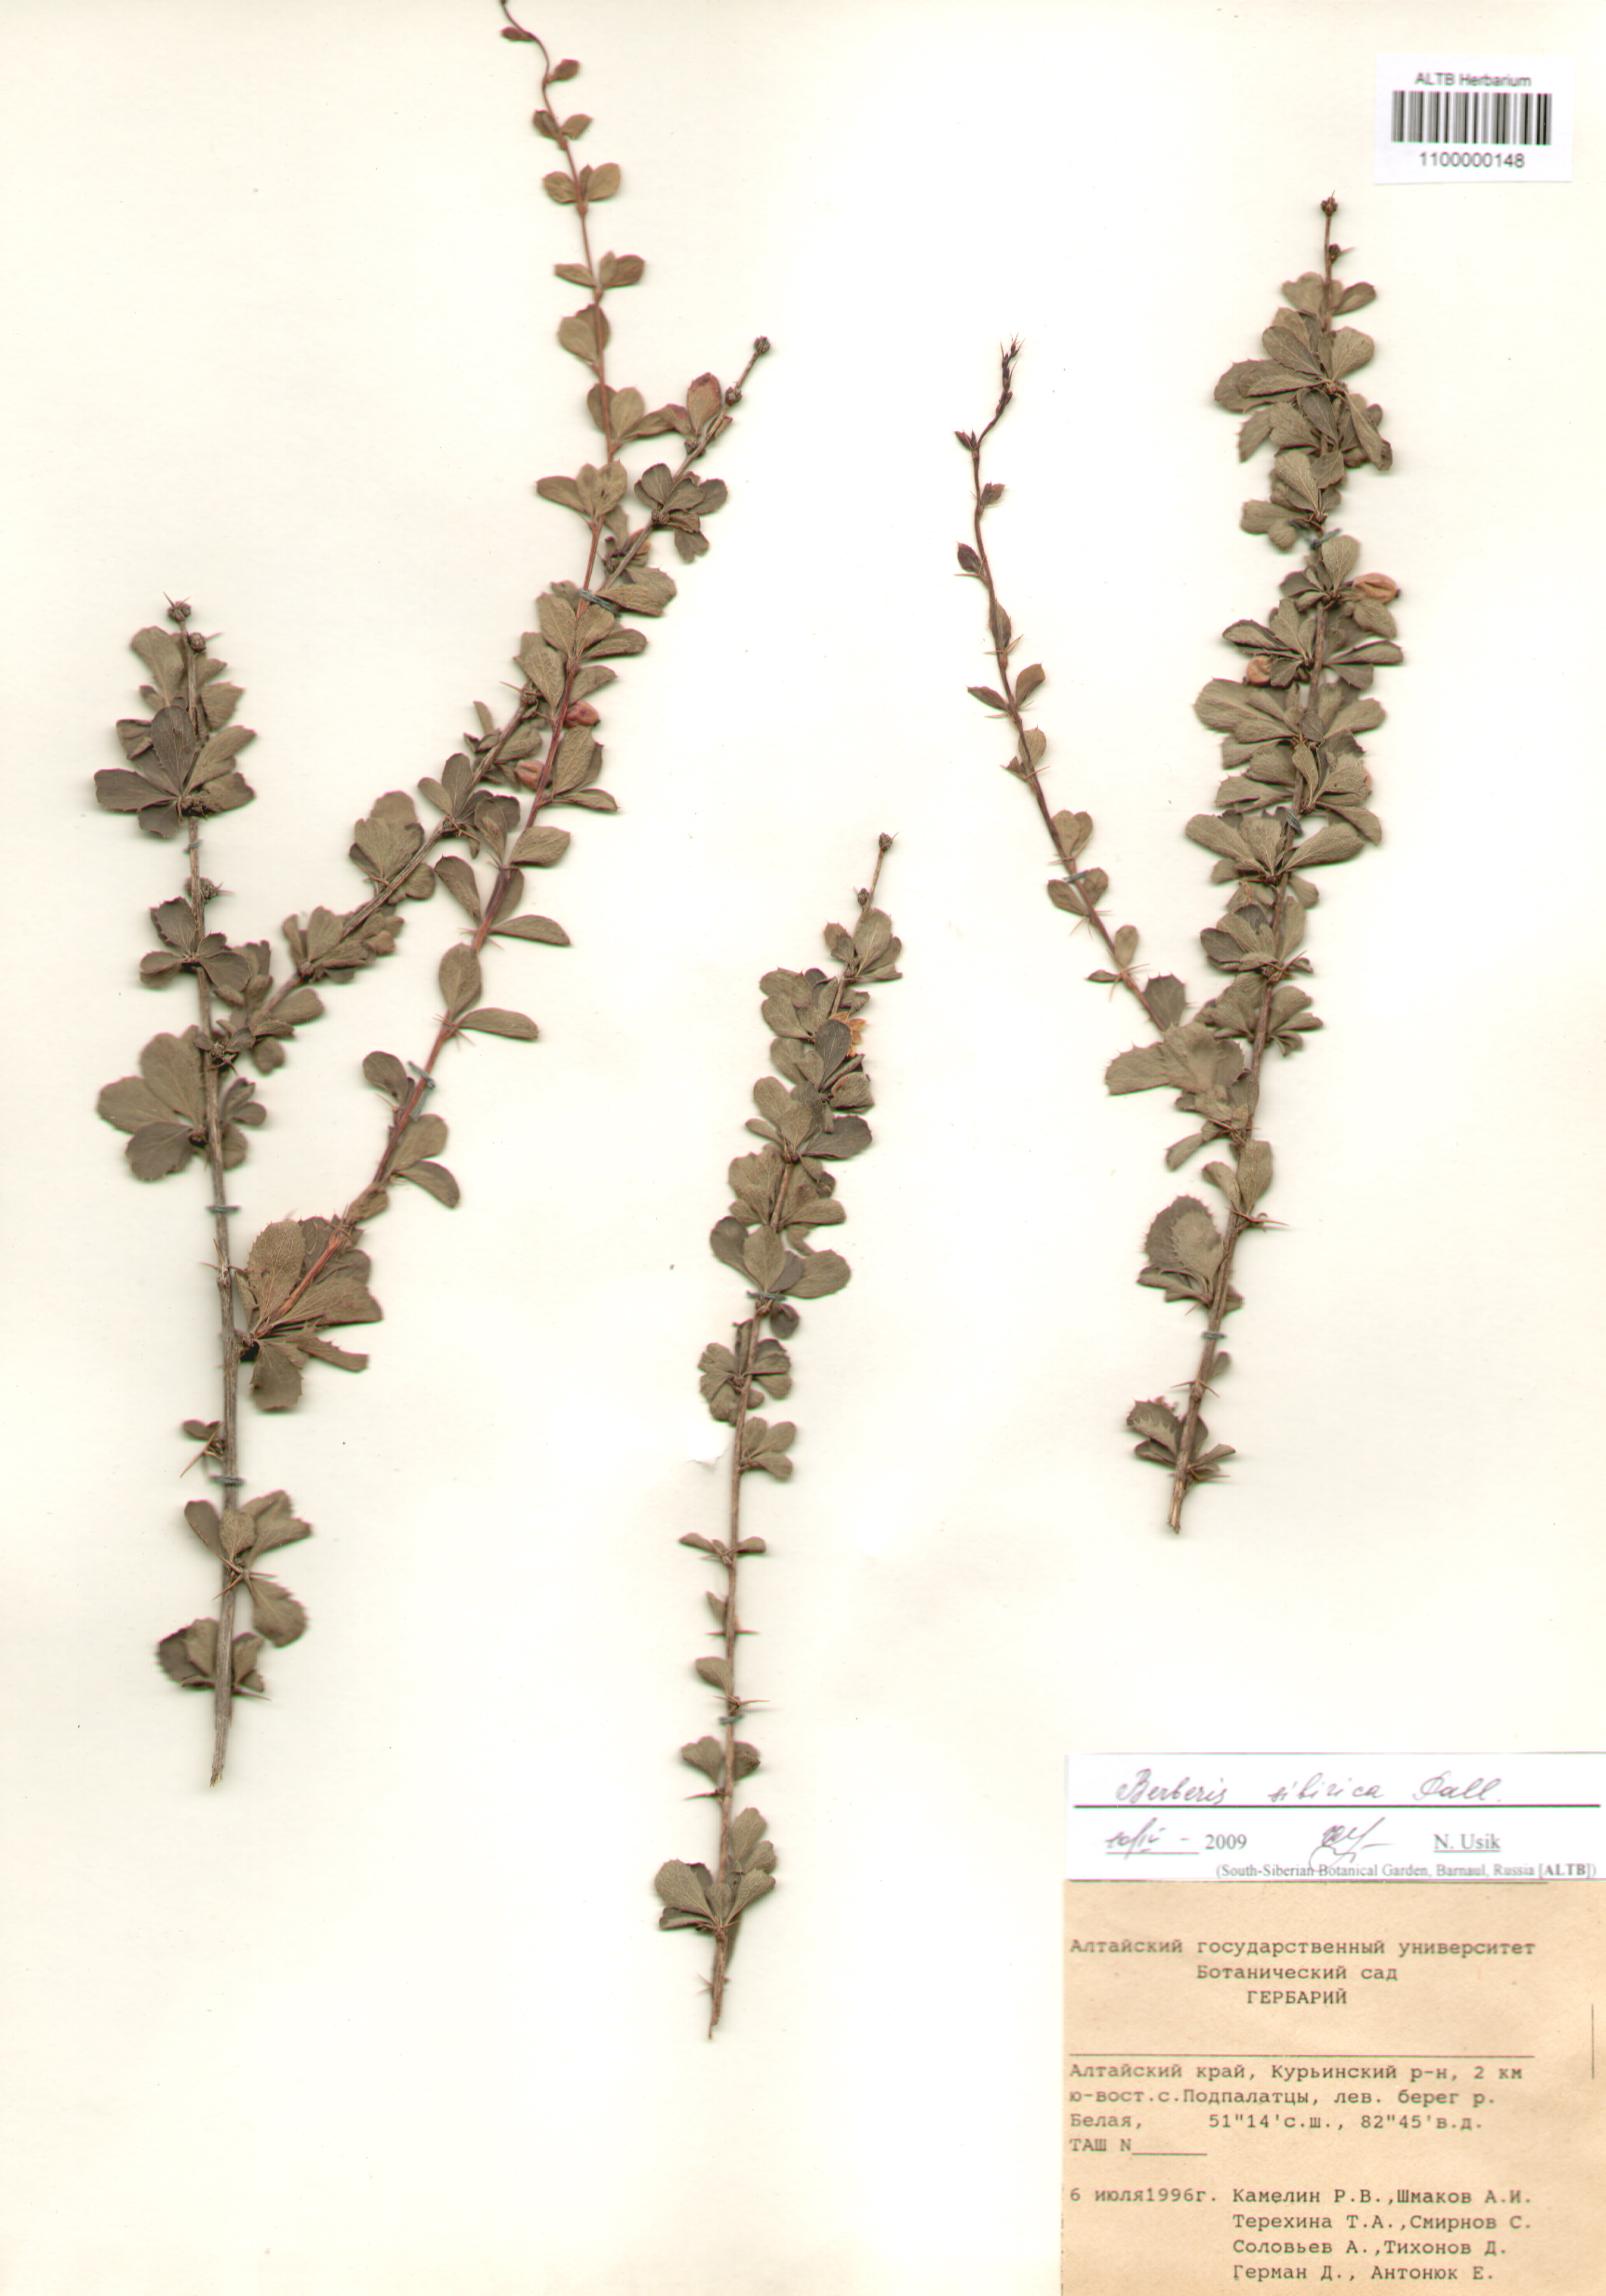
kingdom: Plantae
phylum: Tracheophyta
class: Magnoliopsida
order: Ranunculales
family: Berberidaceae
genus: Berberis
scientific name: Berberis sibirica
